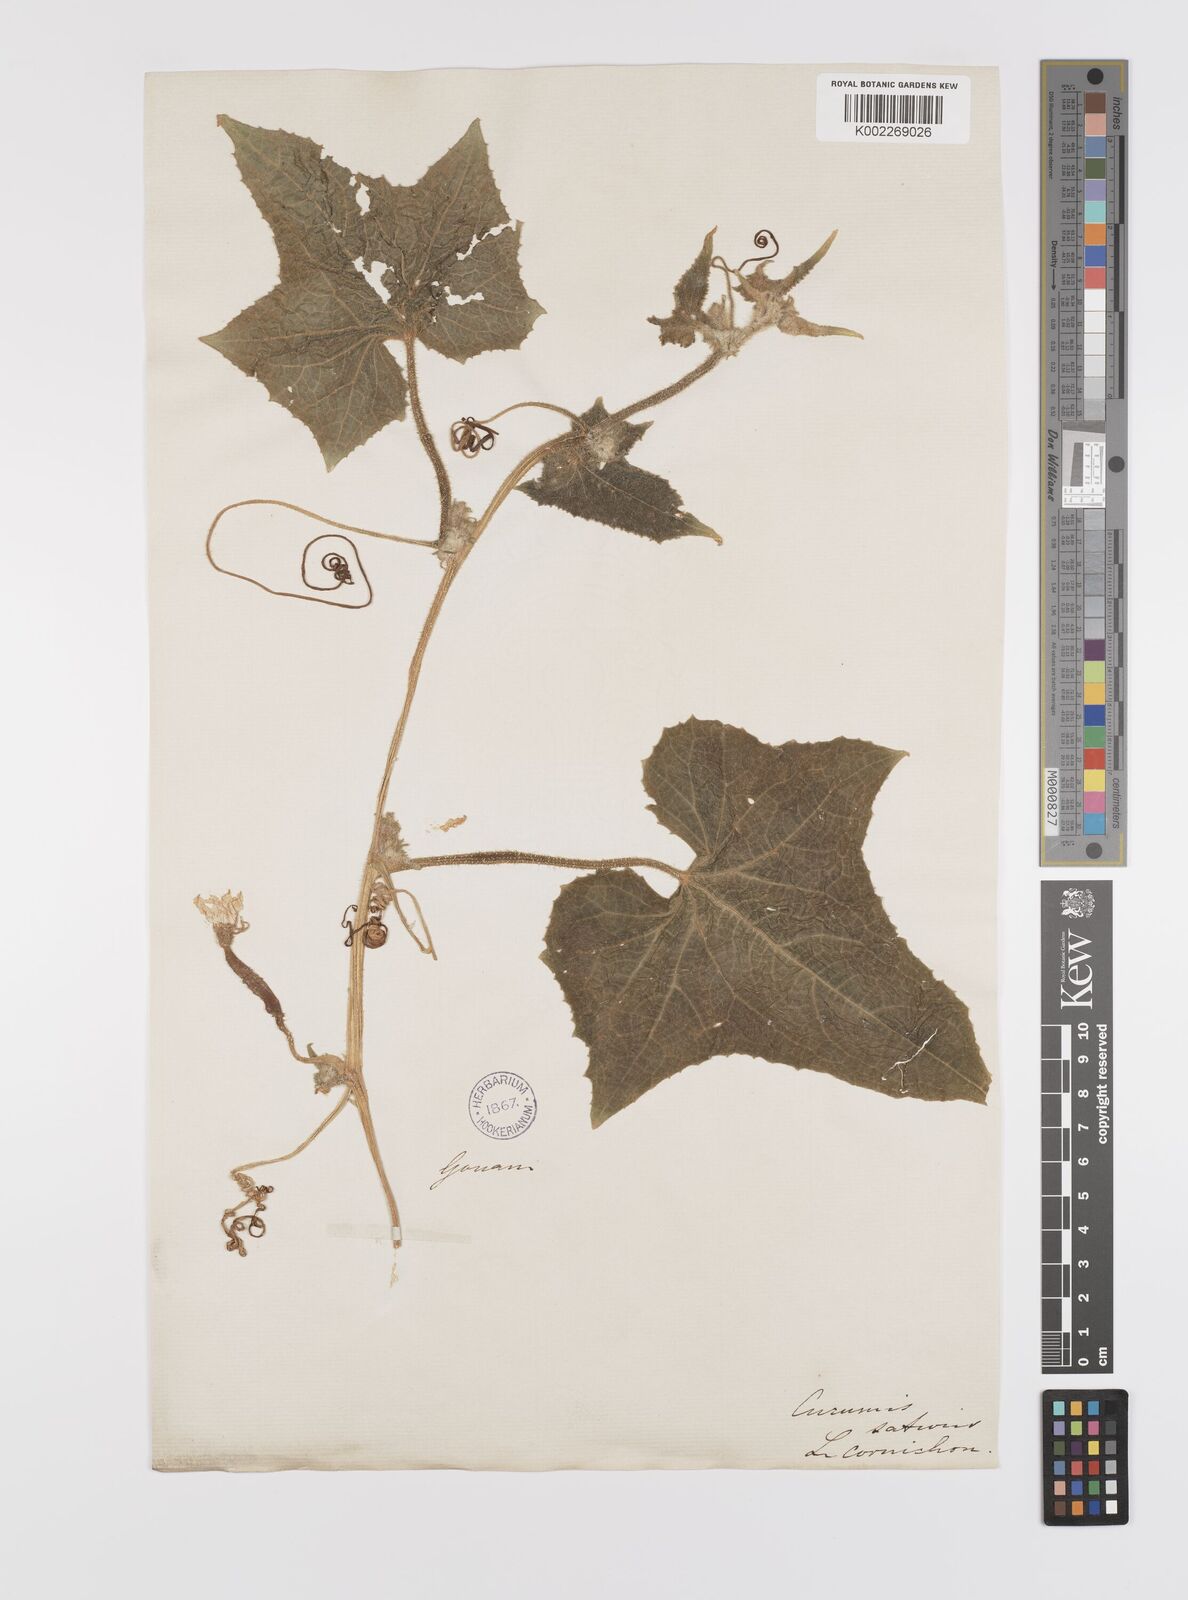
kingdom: Plantae
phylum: Tracheophyta
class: Magnoliopsida
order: Cucurbitales
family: Cucurbitaceae
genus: Cucumis
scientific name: Cucumis sativus
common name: Cucumber
